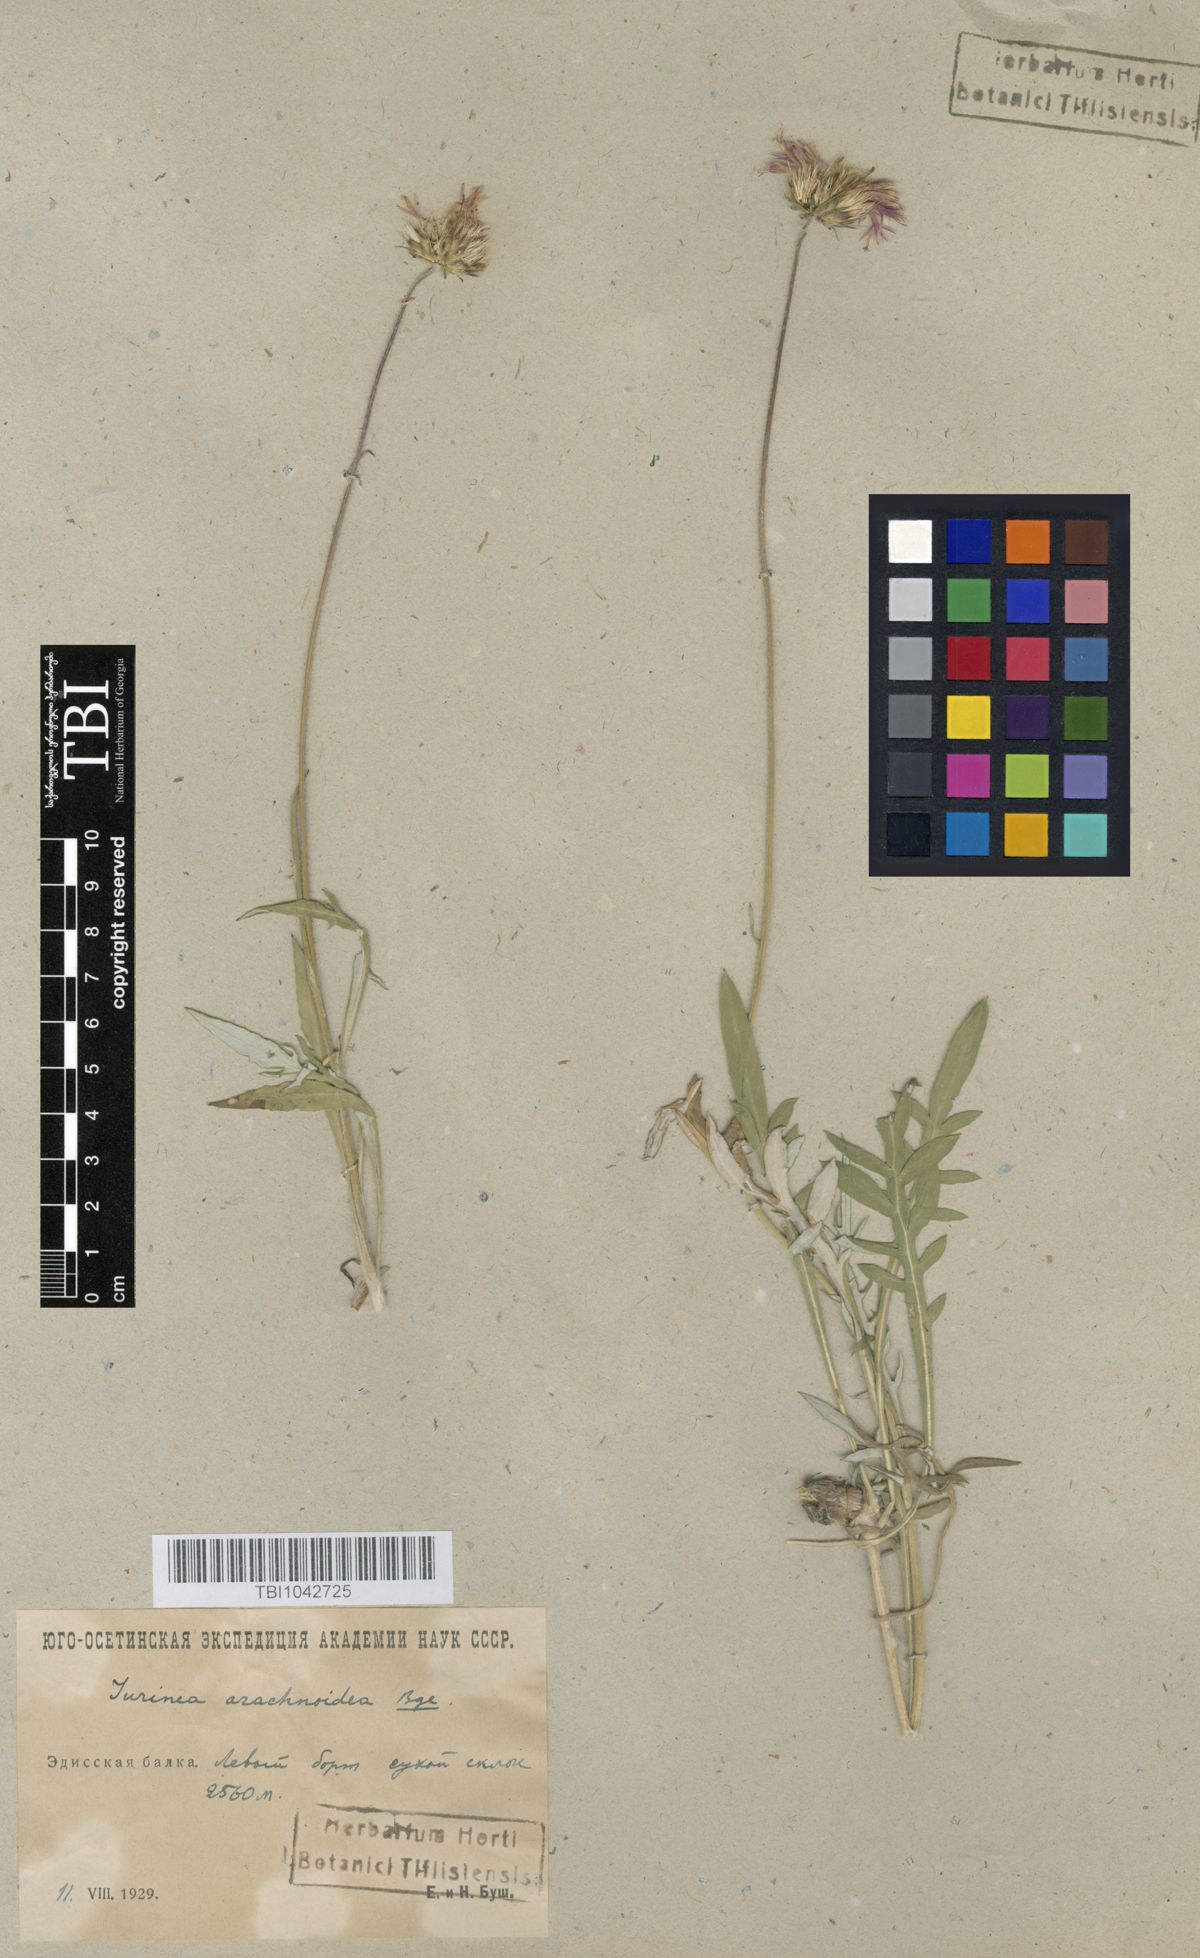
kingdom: Plantae
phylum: Tracheophyta
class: Magnoliopsida
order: Asterales
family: Asteraceae
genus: Jurinea
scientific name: Jurinea blanda
